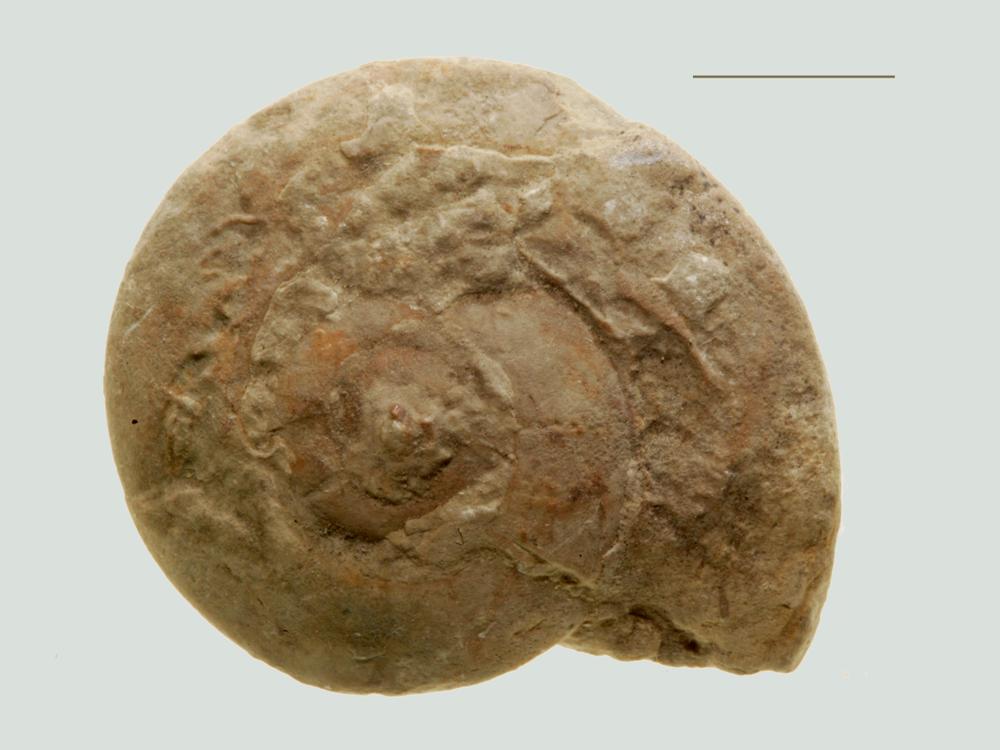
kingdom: Animalia
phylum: Mollusca
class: Gastropoda
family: Bellerophontidae
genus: Cymbularia
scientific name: Cymbularia lenticularis
